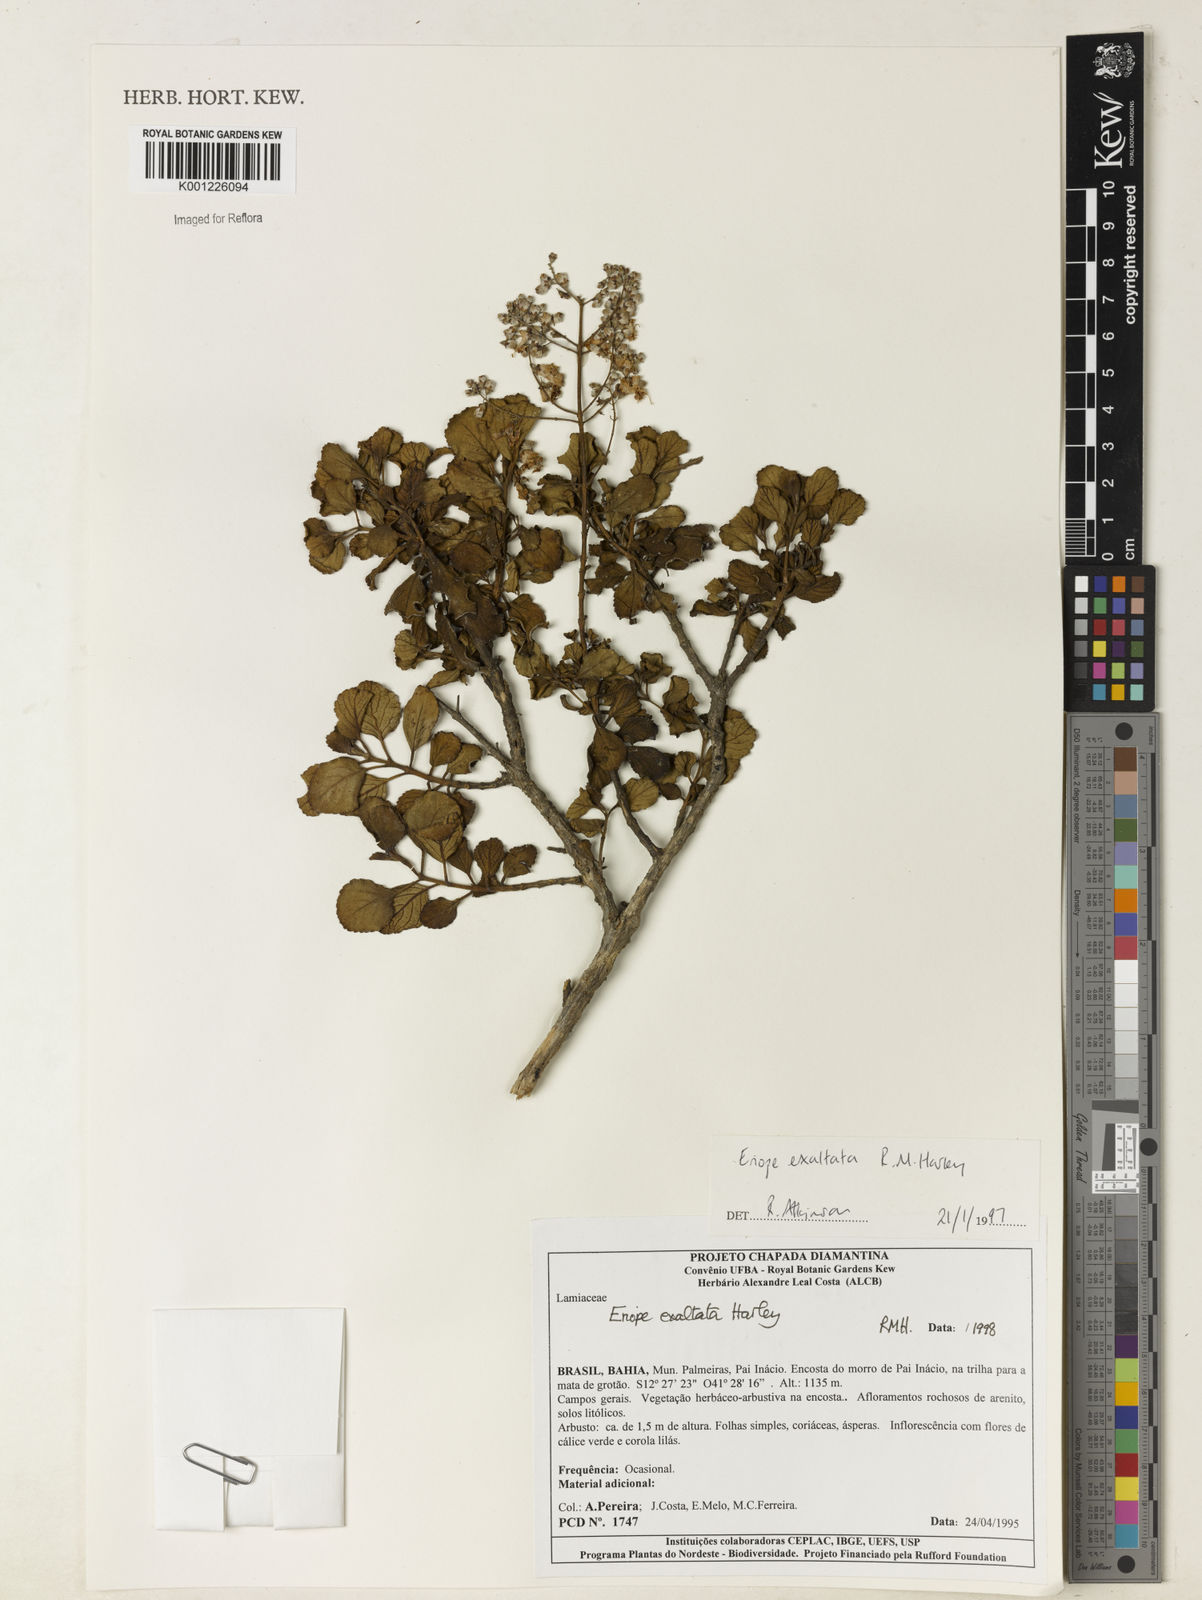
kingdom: Plantae
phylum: Tracheophyta
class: Magnoliopsida
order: Lamiales
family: Lamiaceae
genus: Eriope
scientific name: Eriope exaltata
